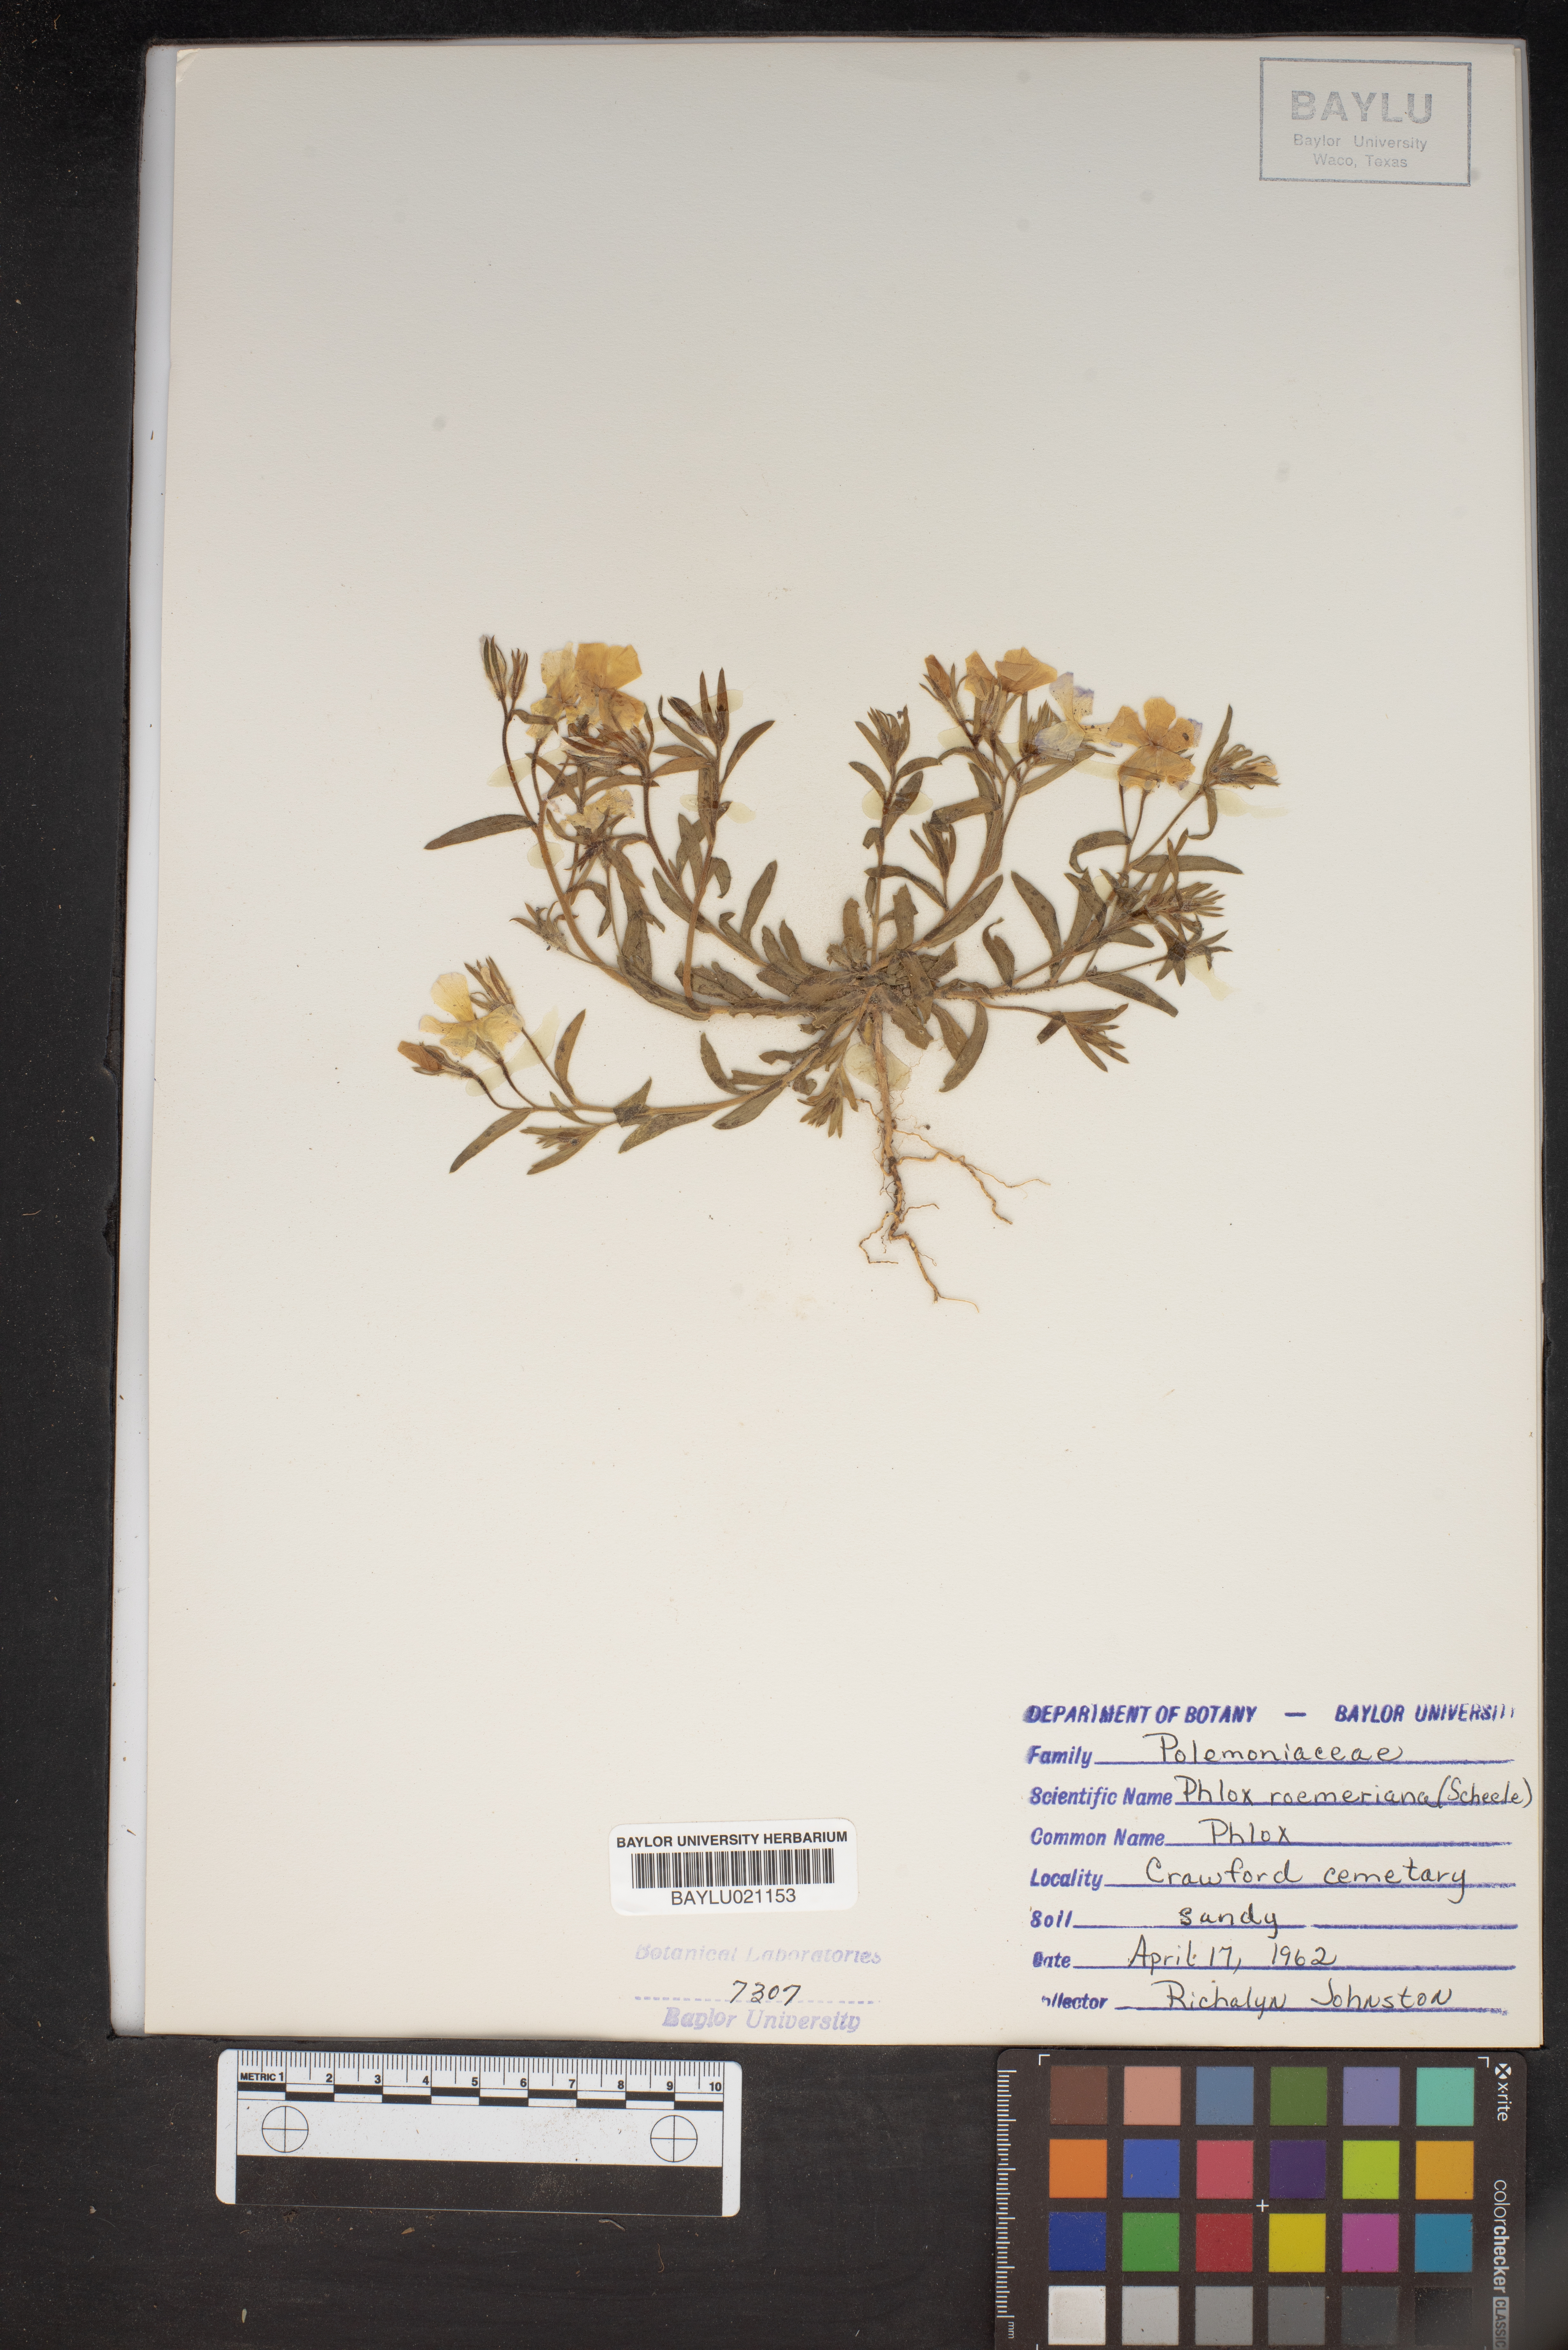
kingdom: Plantae
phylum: Tracheophyta
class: Magnoliopsida
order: Ericales
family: Polemoniaceae
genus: Phlox
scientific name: Phlox roemeriana
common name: Roemer's phlox
